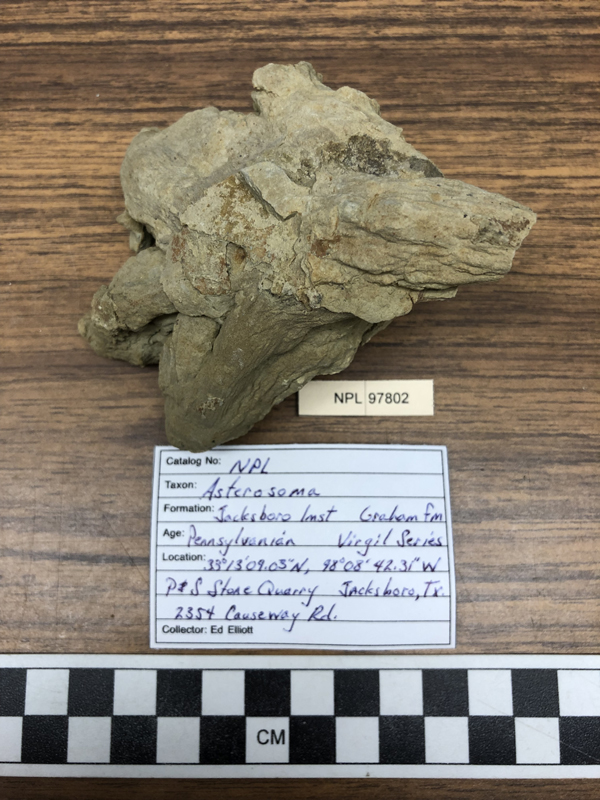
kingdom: Animalia
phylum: Echinodermata
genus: Asterosoma
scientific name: Asterosoma
